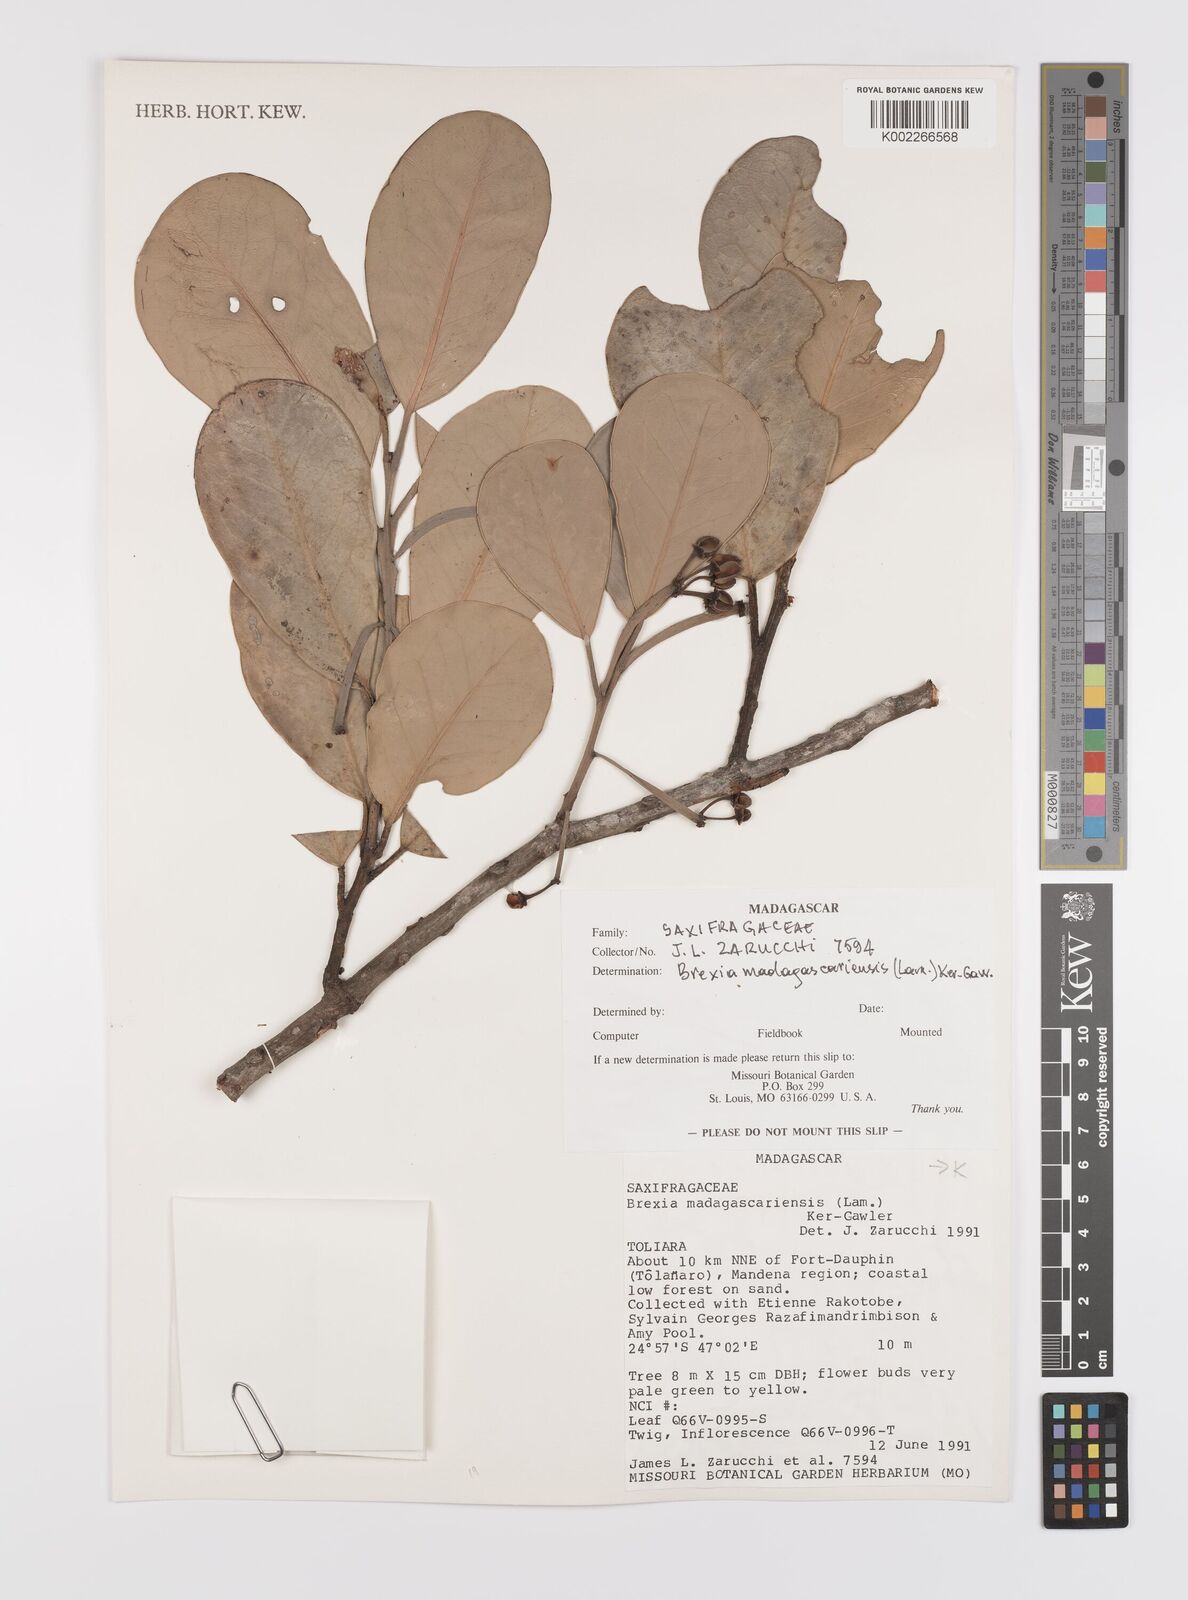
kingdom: Plantae
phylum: Tracheophyta
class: Magnoliopsida
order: Celastrales
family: Celastraceae
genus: Brexia
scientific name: Brexia madagascariensis
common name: Brexia
